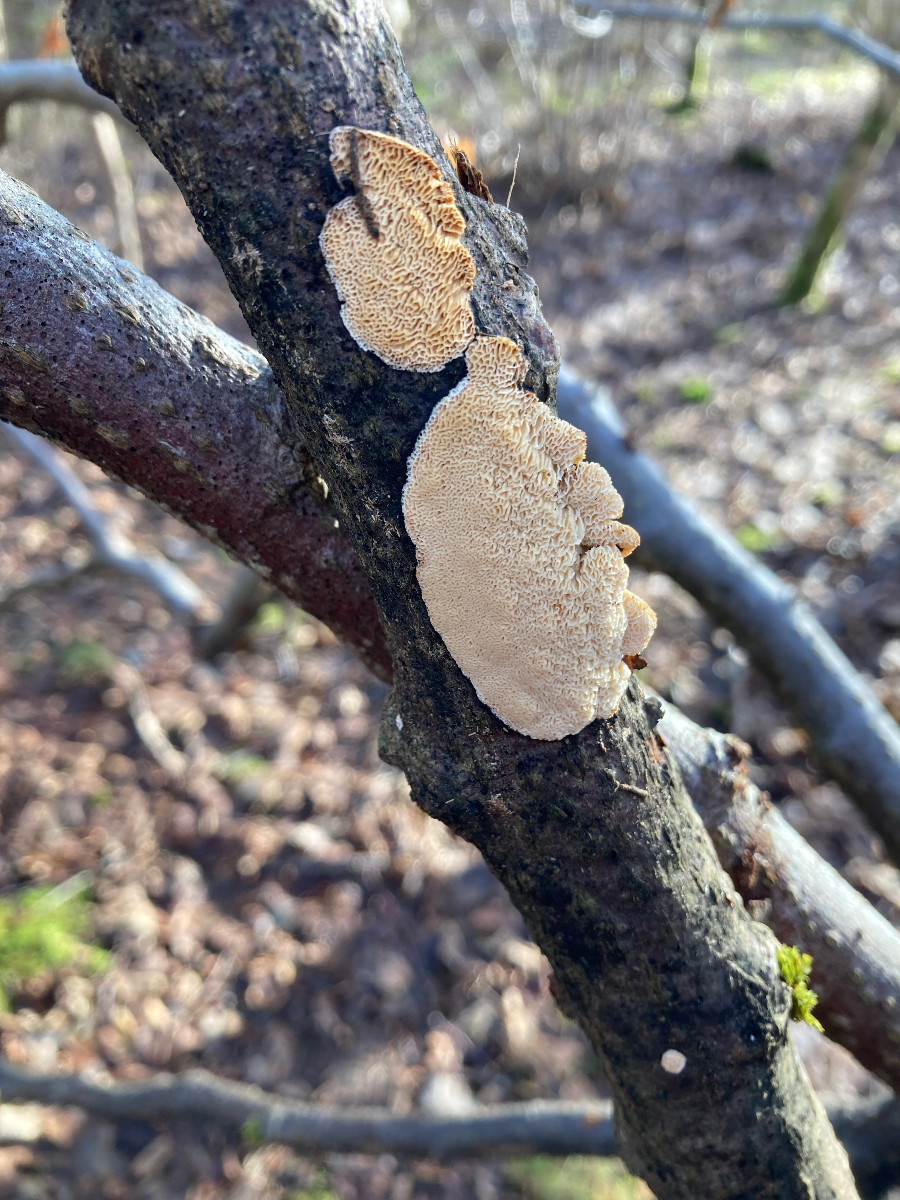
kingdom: Fungi
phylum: Basidiomycota
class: Agaricomycetes
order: Polyporales
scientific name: Polyporales
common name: poresvampordenen
